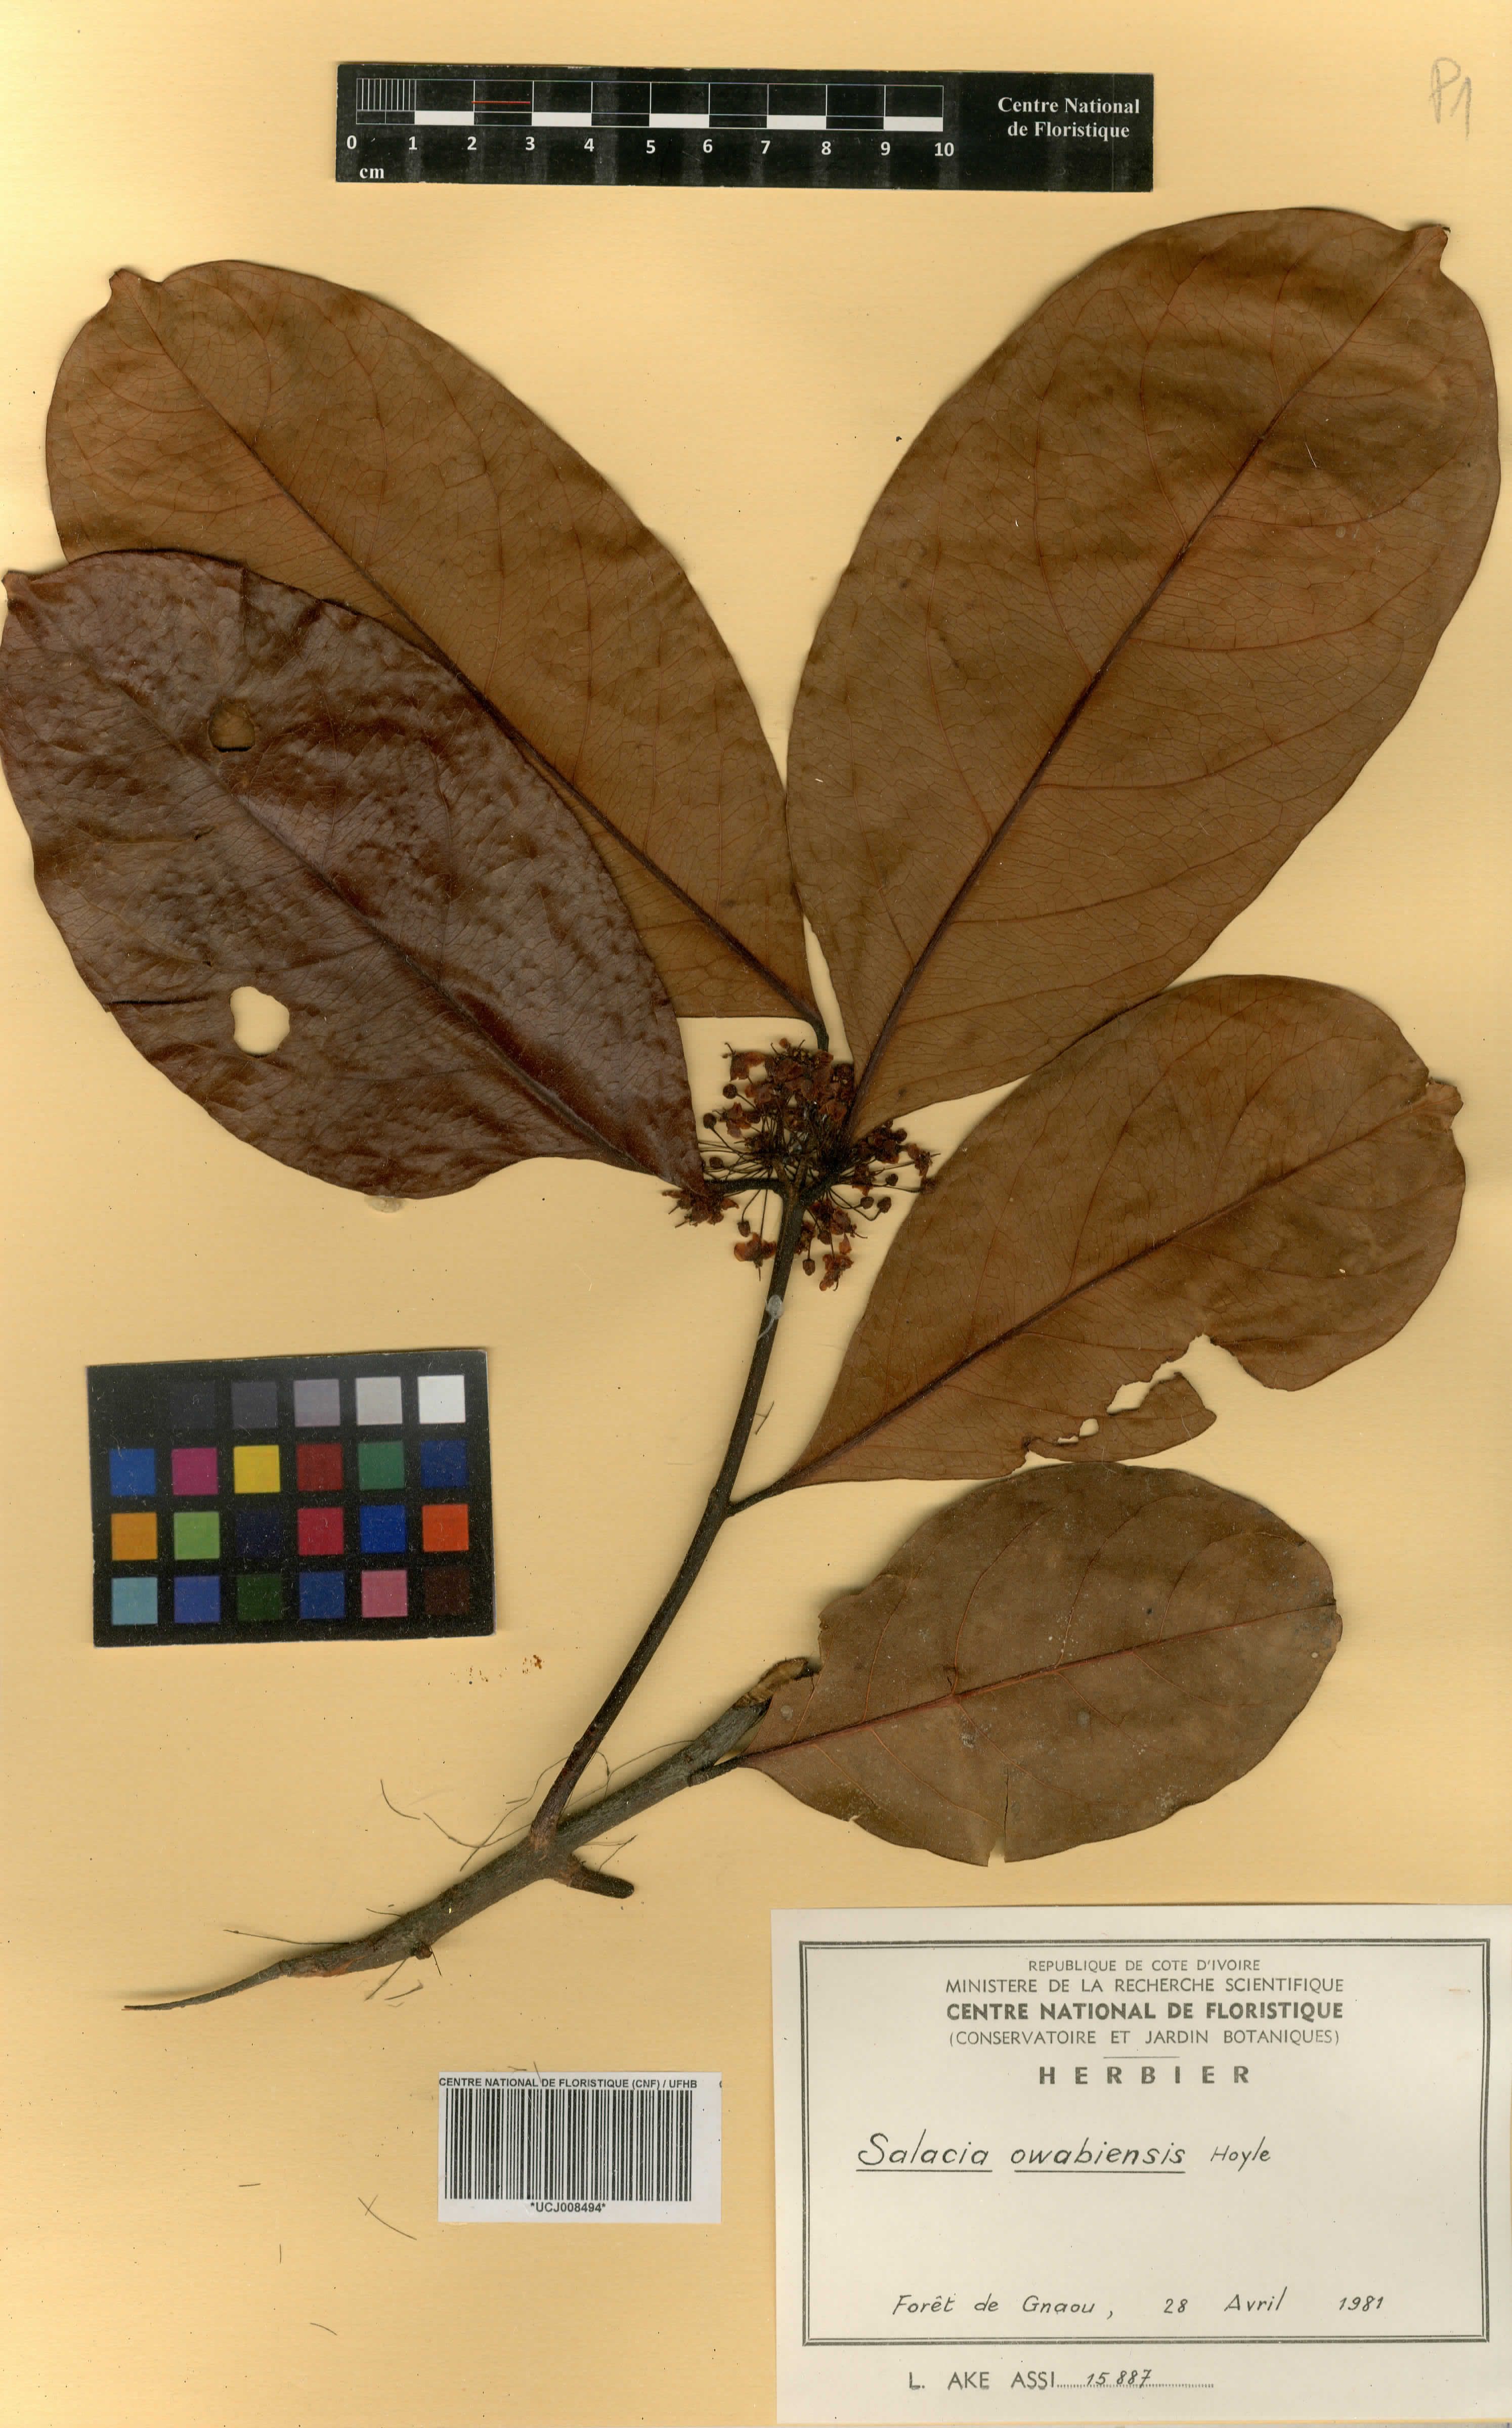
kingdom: Plantae
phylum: Tracheophyta
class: Magnoliopsida
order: Celastrales
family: Celastraceae
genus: Salacia
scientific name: Salacia owabiensis
